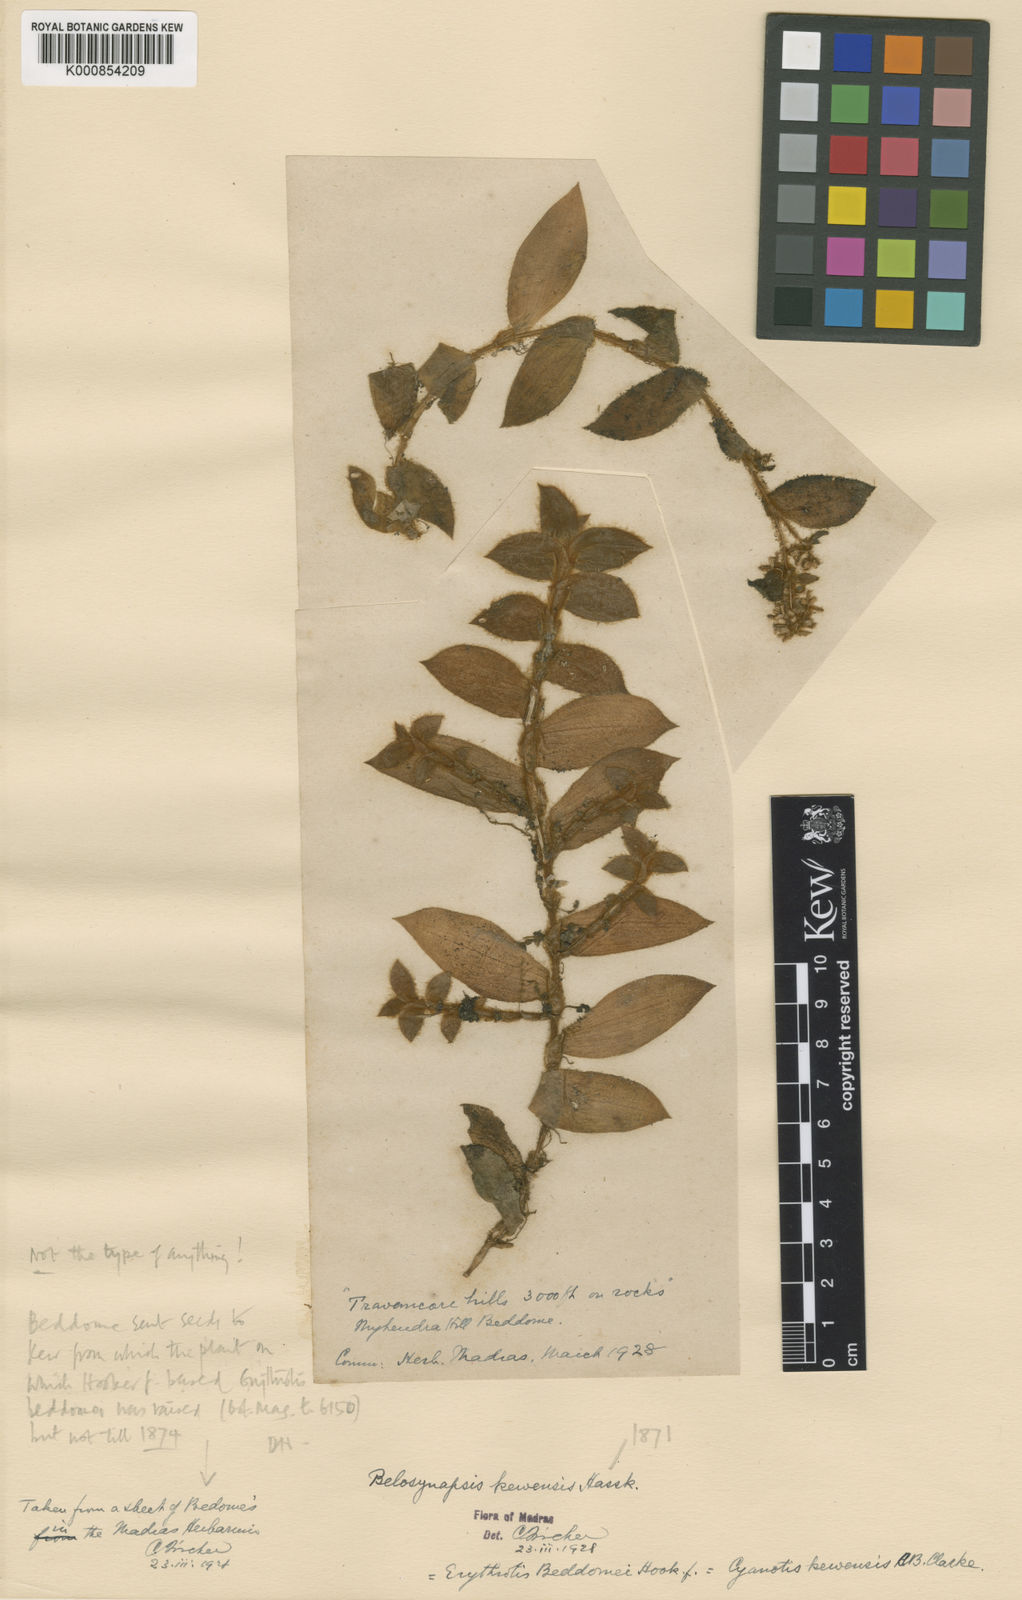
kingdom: Plantae
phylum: Tracheophyta
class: Liliopsida
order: Commelinales
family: Commelinaceae
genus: Cyanotis
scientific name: Cyanotis beddomei
